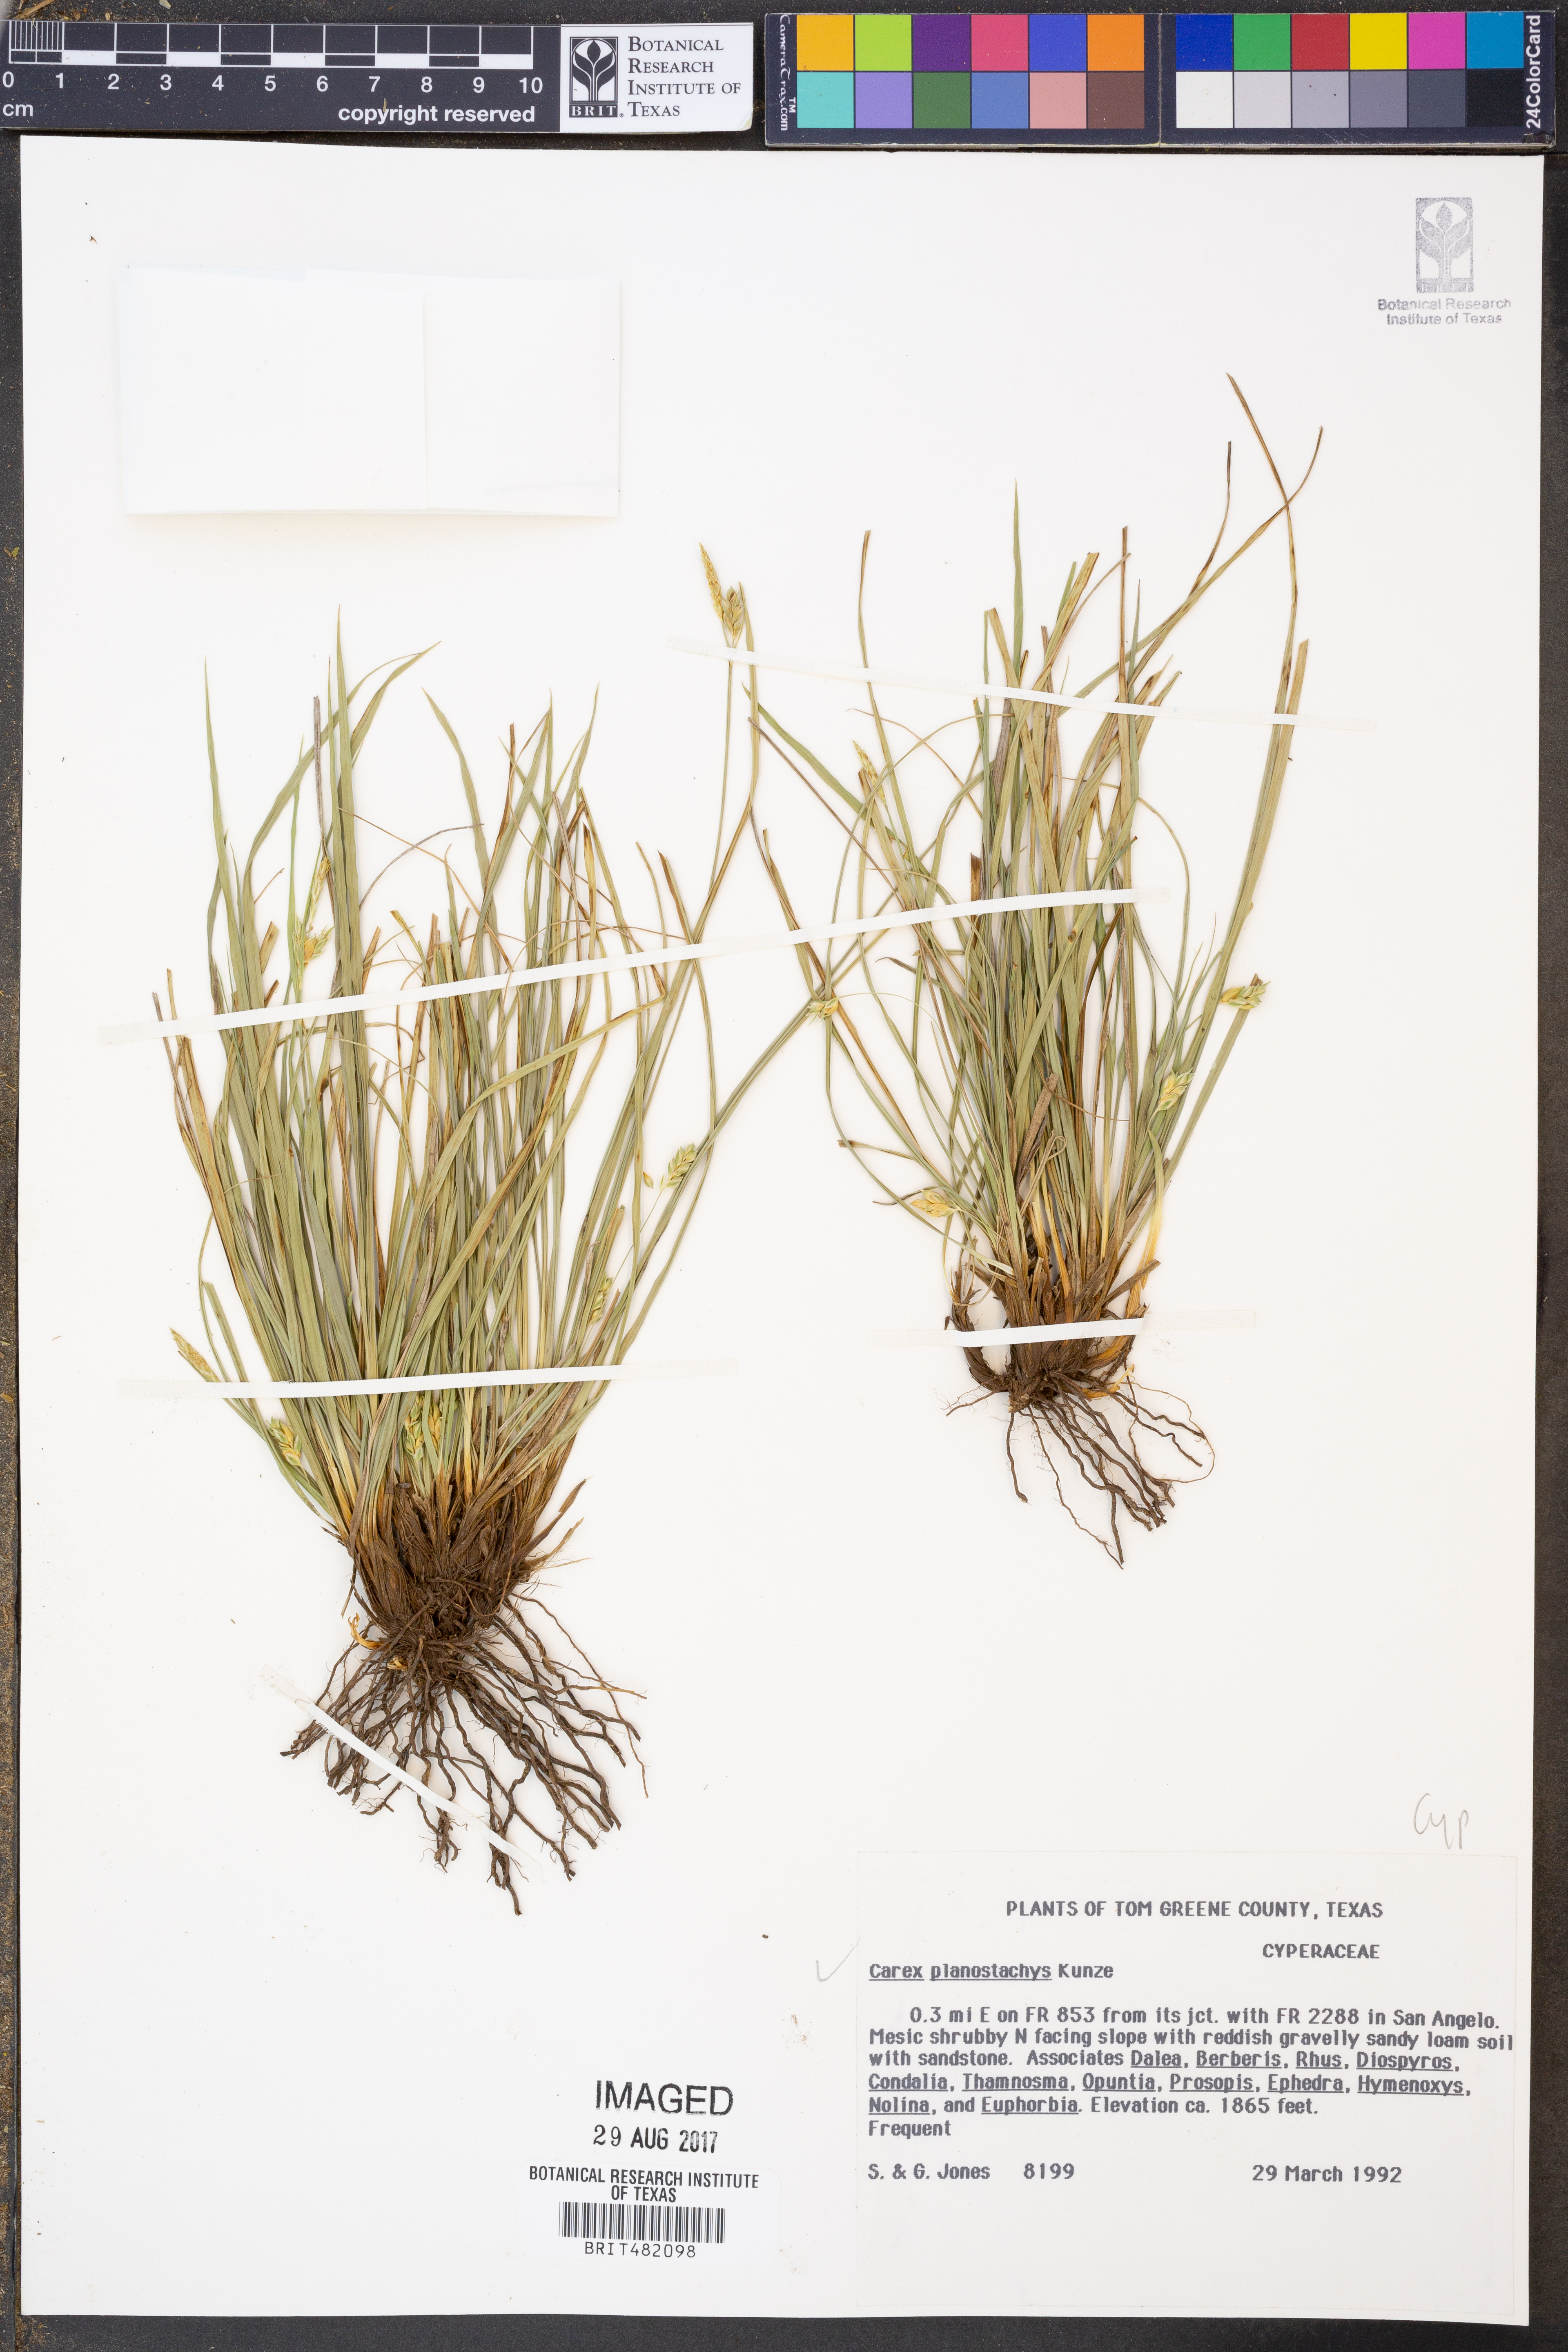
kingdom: Plantae
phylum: Tracheophyta
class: Liliopsida
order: Poales
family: Cyperaceae
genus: Carex
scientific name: Carex planostachys
